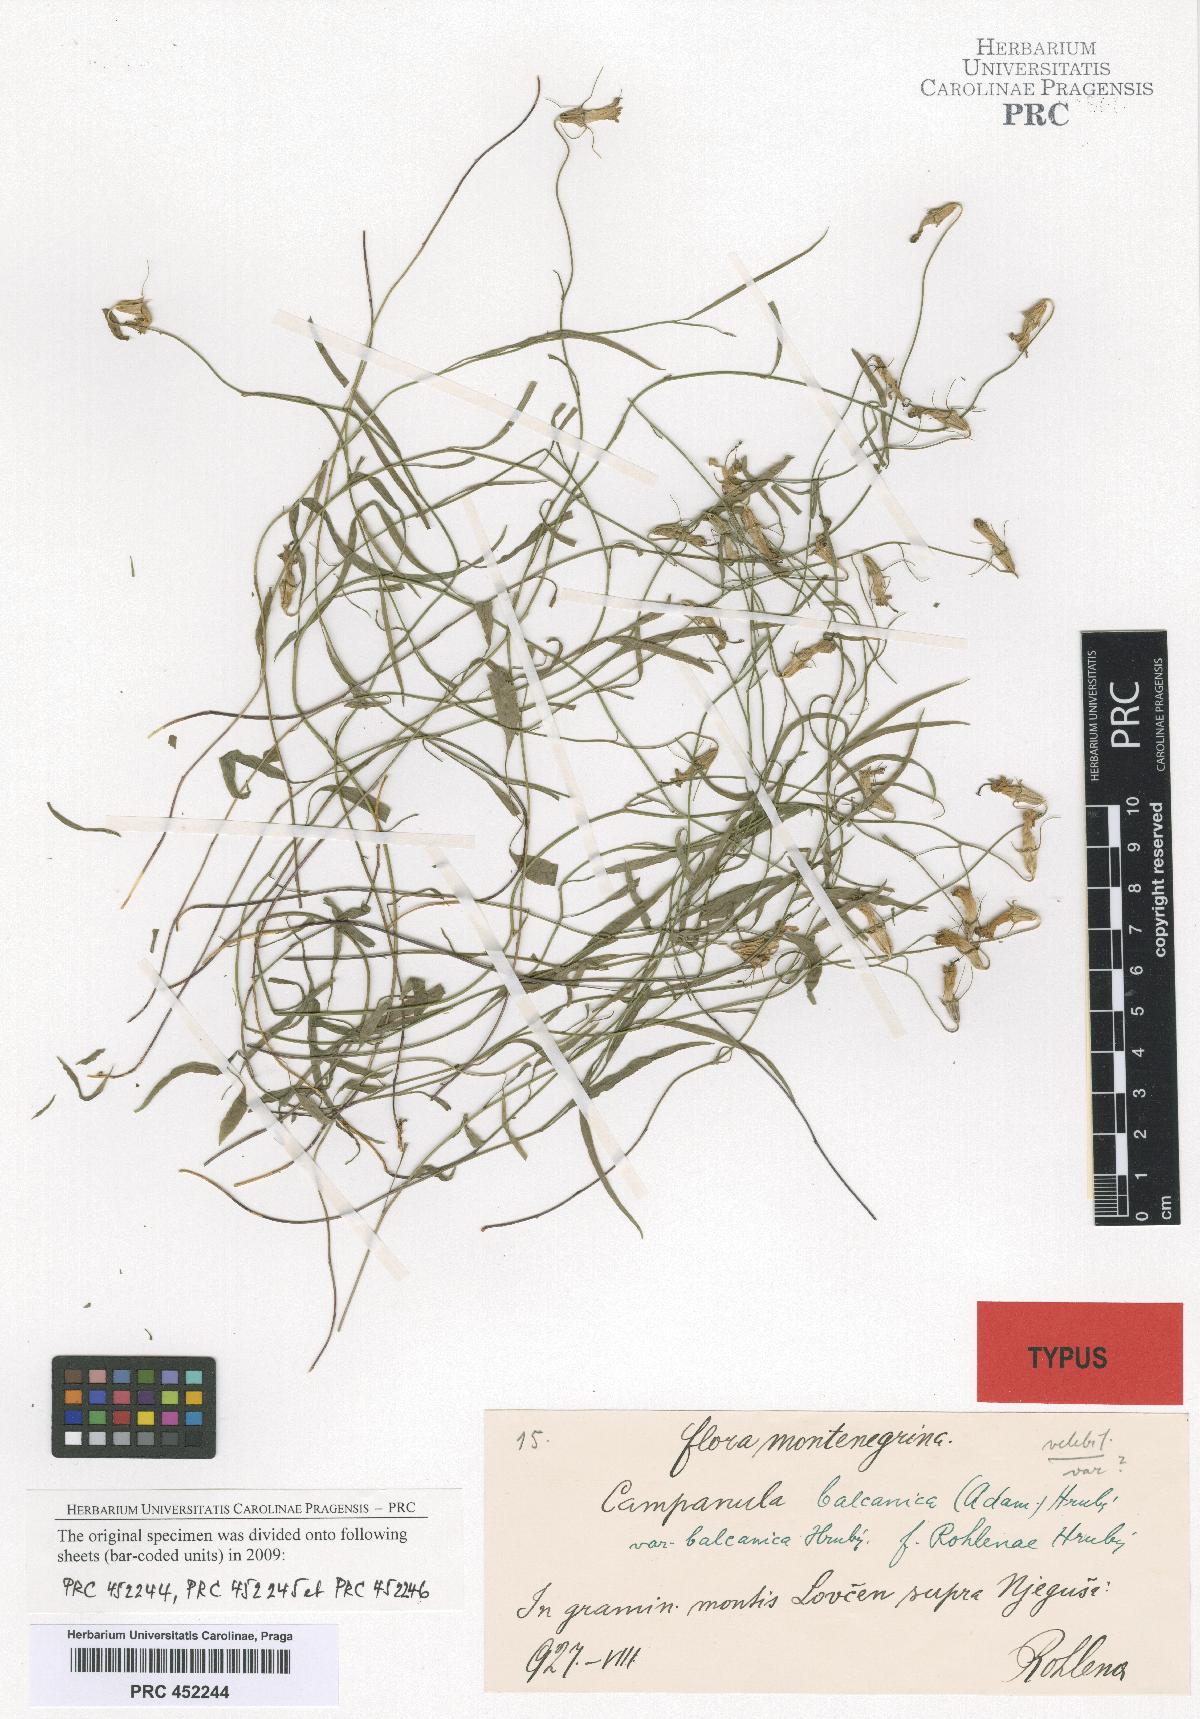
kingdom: Plantae
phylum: Tracheophyta
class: Magnoliopsida
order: Asterales
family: Campanulaceae
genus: Campanula
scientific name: Campanula velebitica
